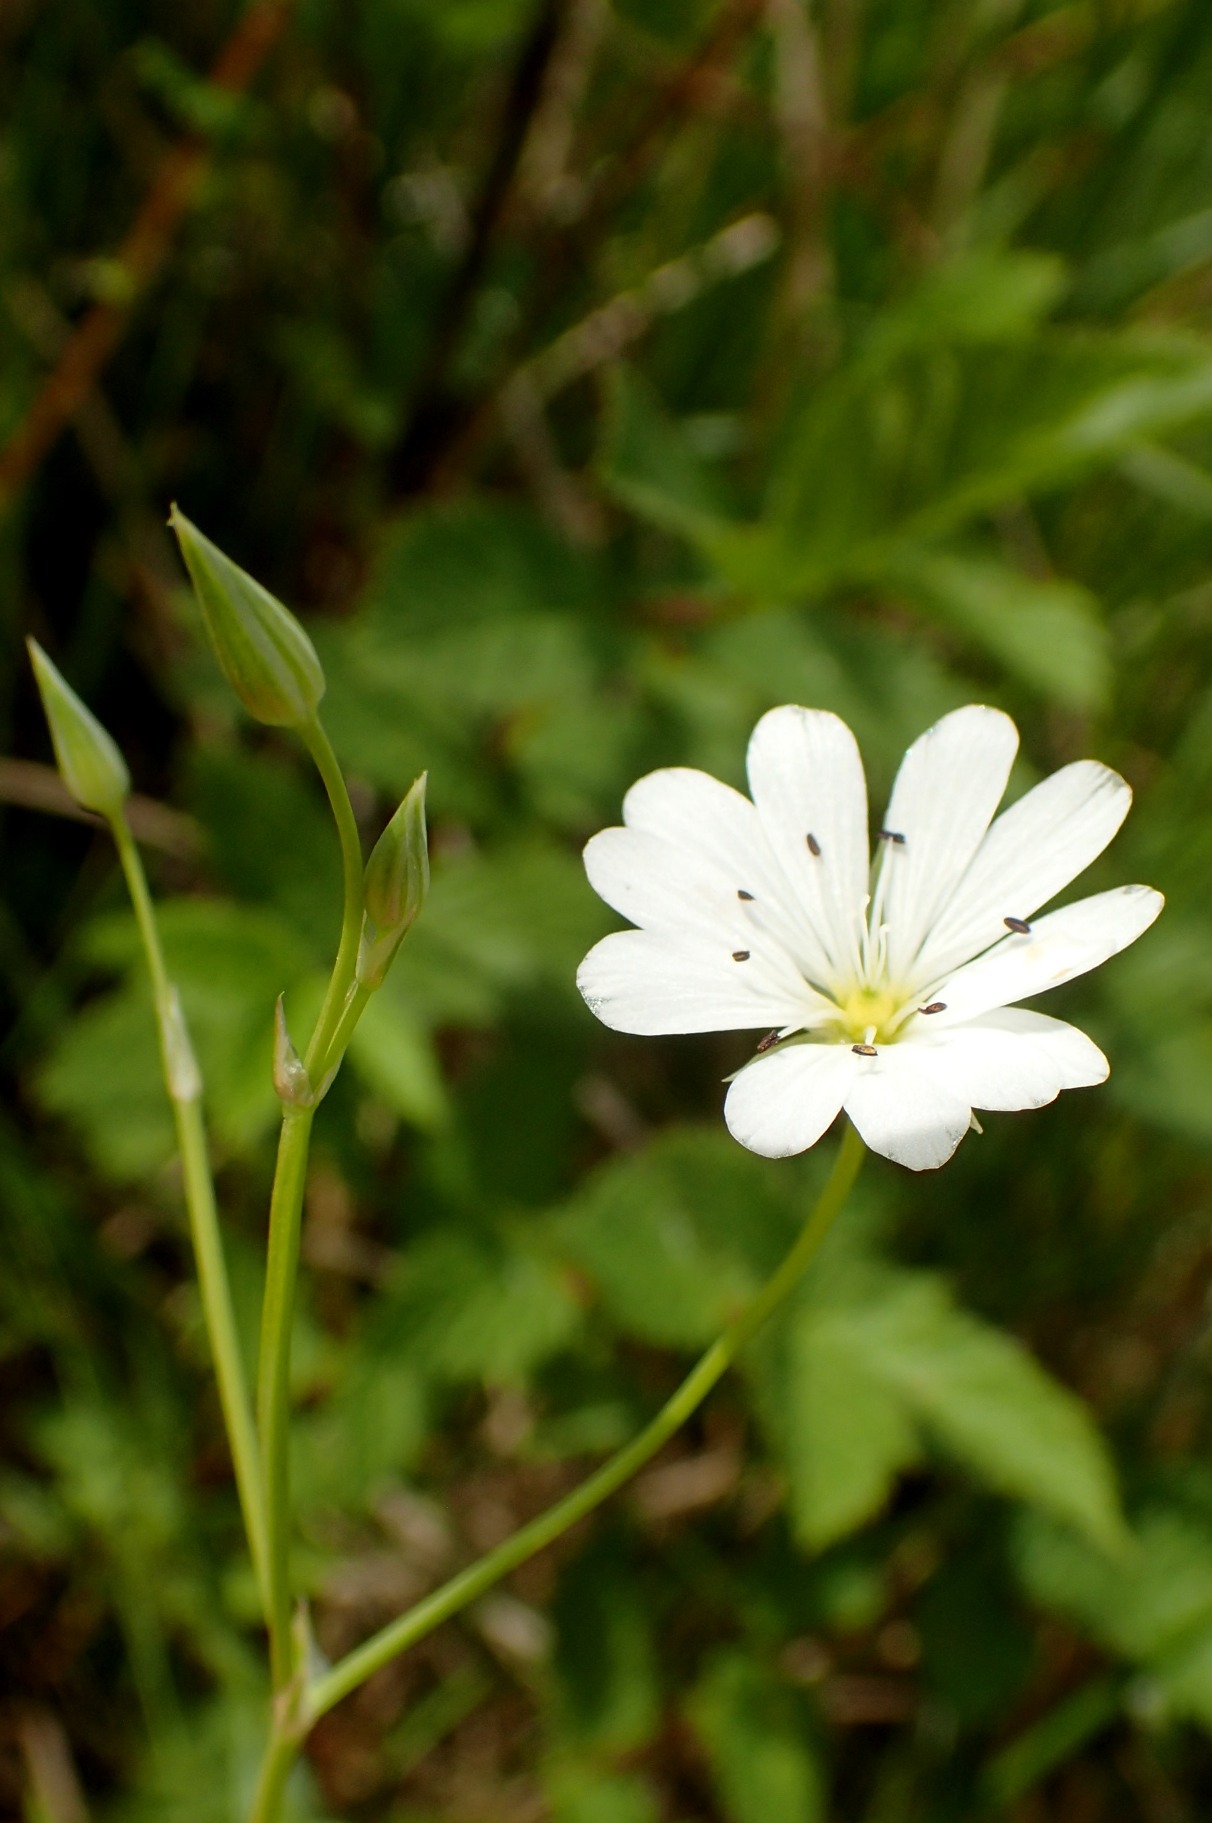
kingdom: Plantae
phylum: Tracheophyta
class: Magnoliopsida
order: Caryophyllales
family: Caryophyllaceae
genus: Stellaria
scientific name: Stellaria palustris
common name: Kær-fladstjerne
